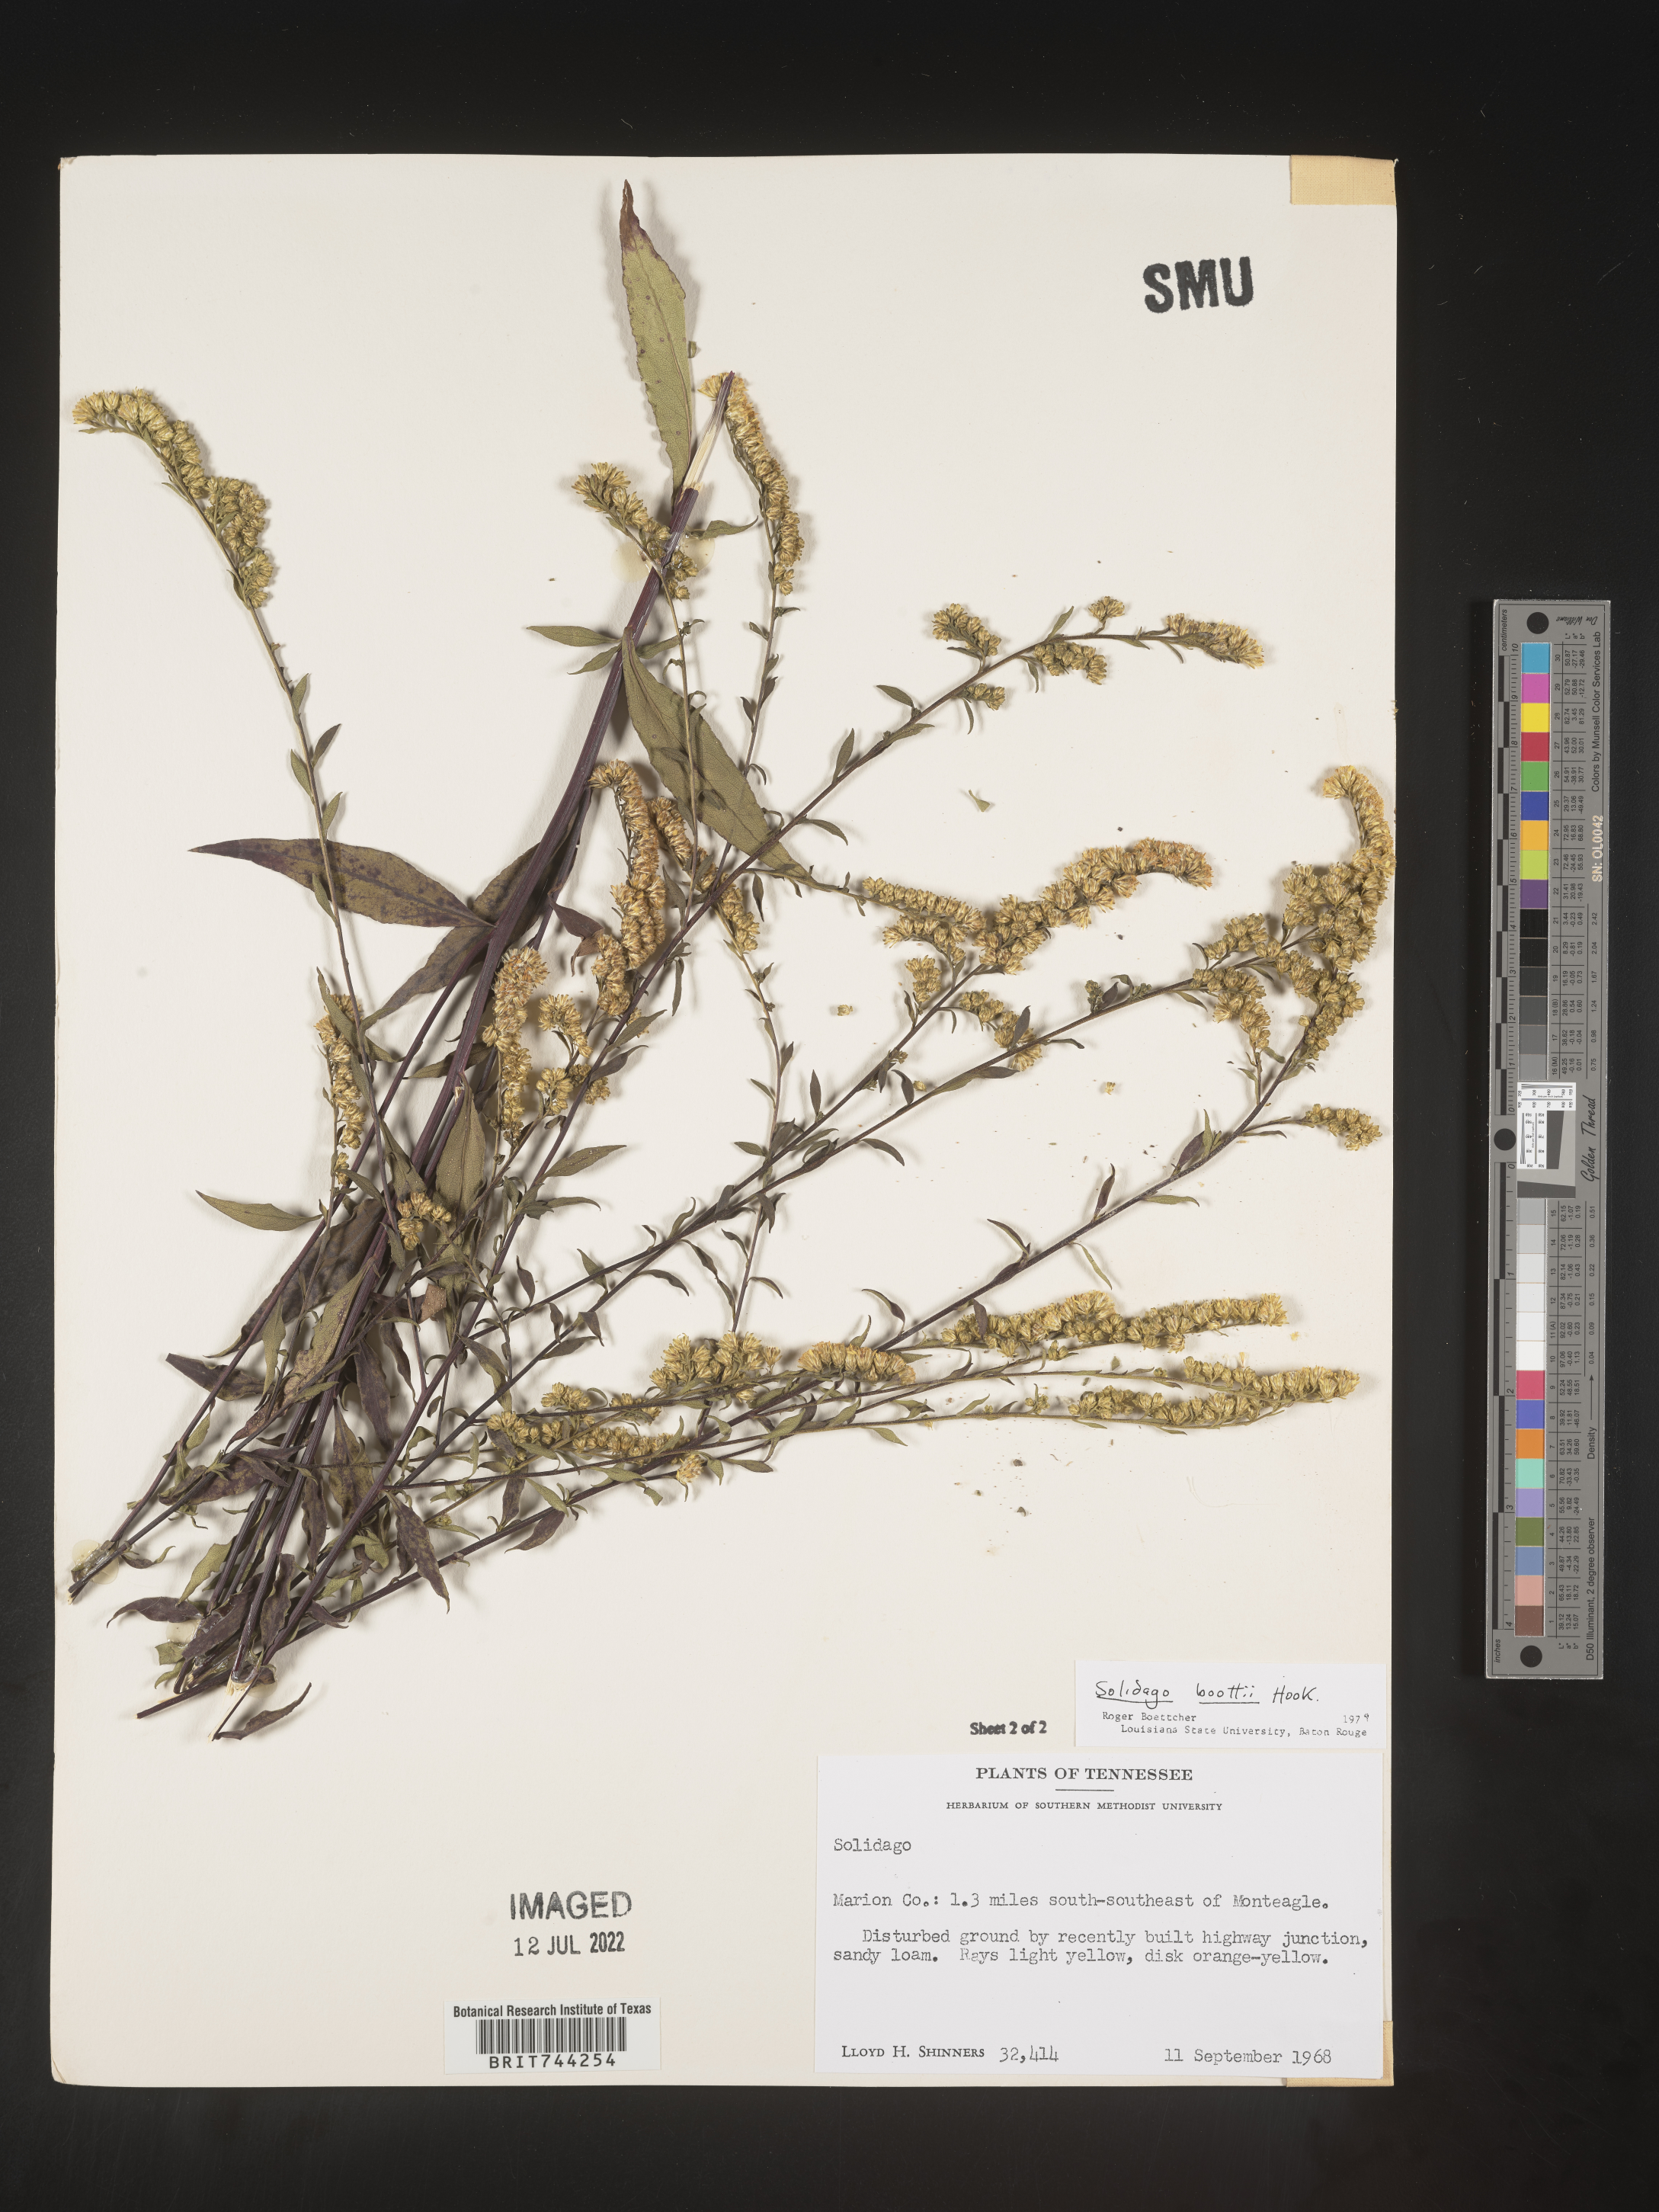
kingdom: Plantae
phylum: Tracheophyta
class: Magnoliopsida
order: Asterales
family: Asteraceae
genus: Solidago
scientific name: Solidago vaseyi
